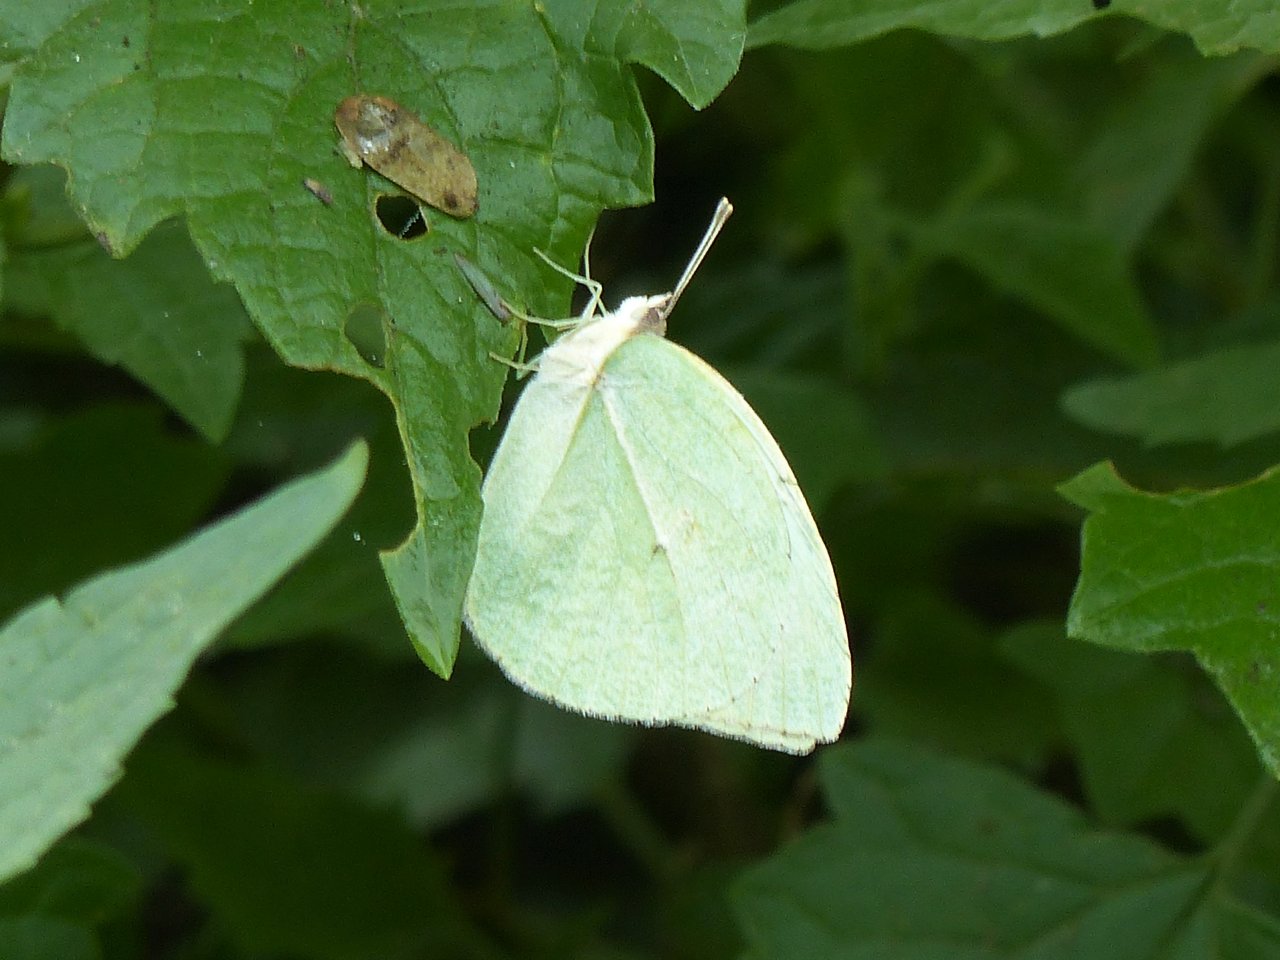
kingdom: Animalia
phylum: Arthropoda
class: Insecta
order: Lepidoptera
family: Pieridae
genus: Kricogonia
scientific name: Kricogonia lyside
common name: Lyside Sulphur
